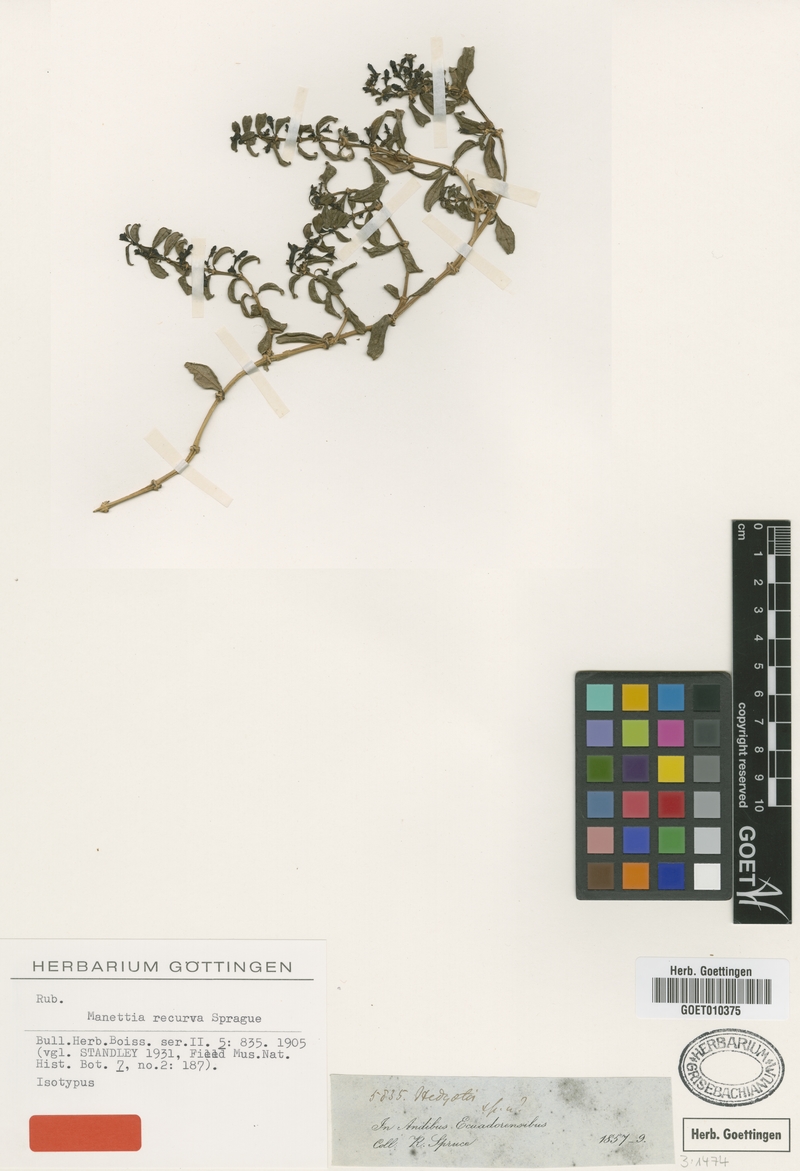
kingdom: Plantae
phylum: Tracheophyta
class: Magnoliopsida
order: Gentianales
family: Rubiaceae
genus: Manettia
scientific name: Manettia recurva
